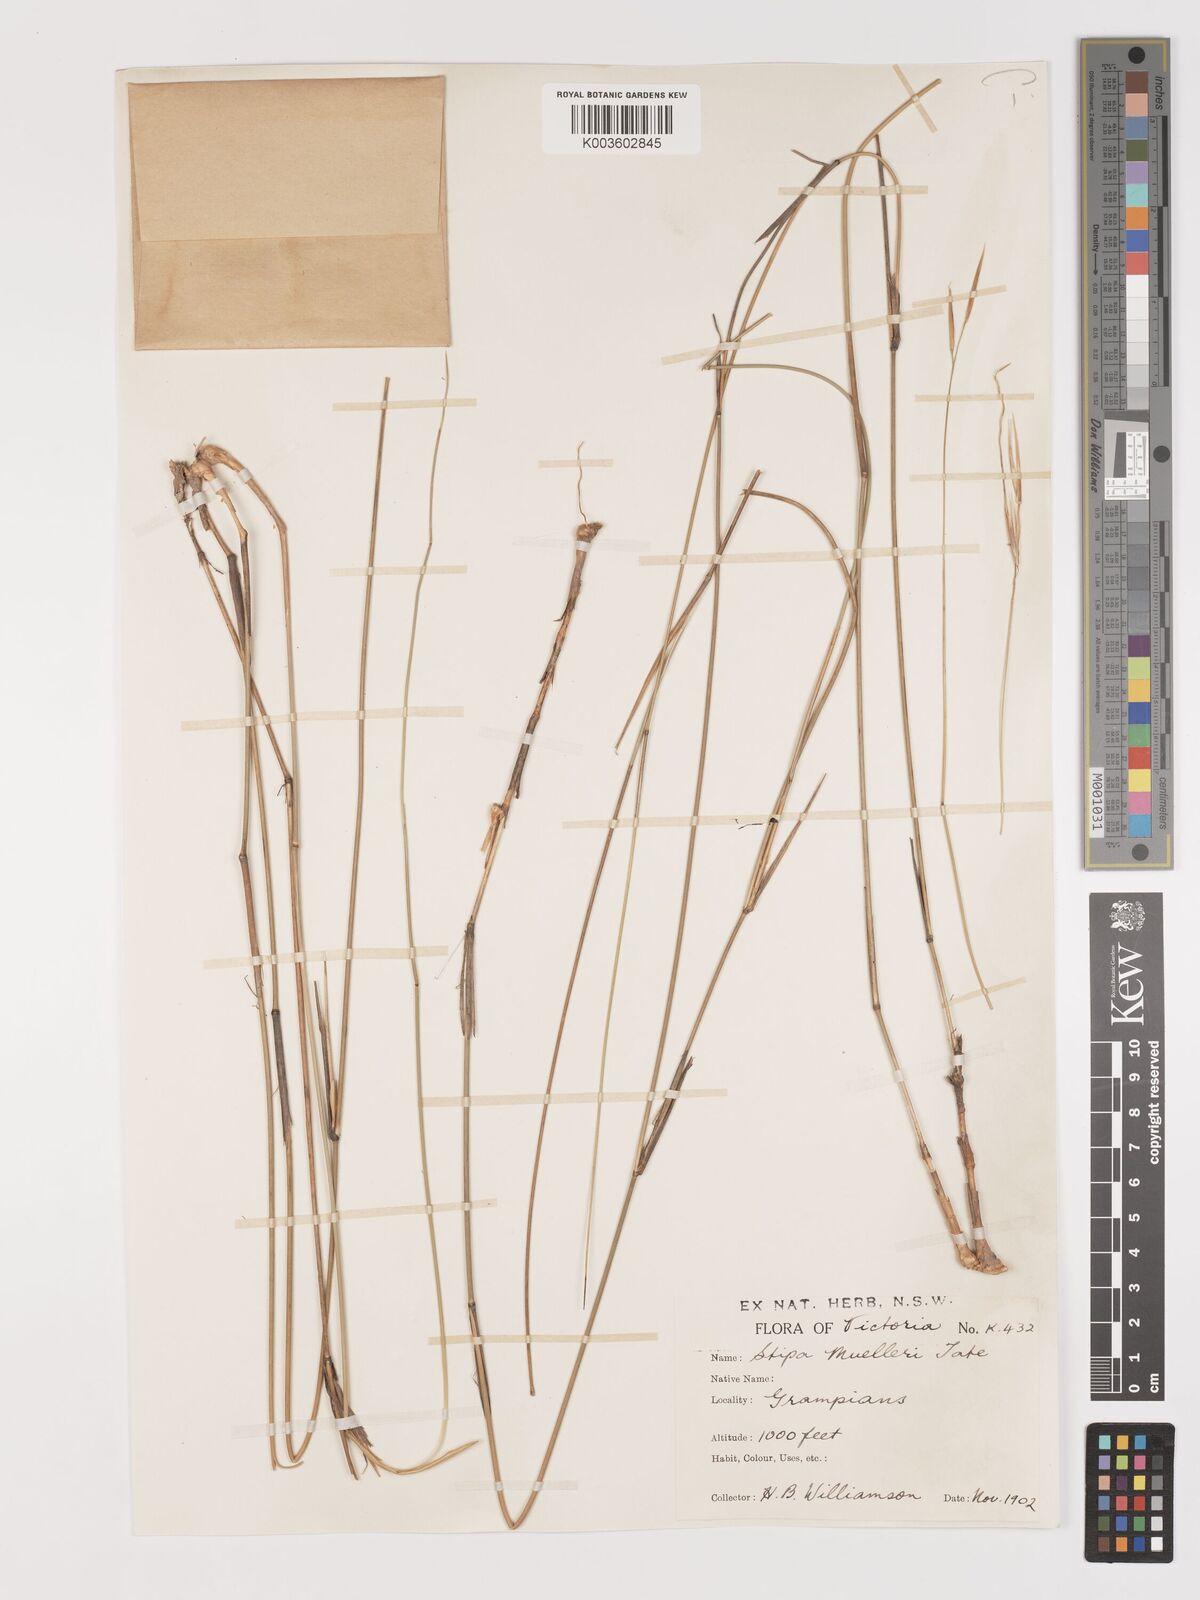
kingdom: Plantae
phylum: Tracheophyta
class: Liliopsida
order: Poales
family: Poaceae
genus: Austrostipa
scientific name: Austrostipa muelleri
